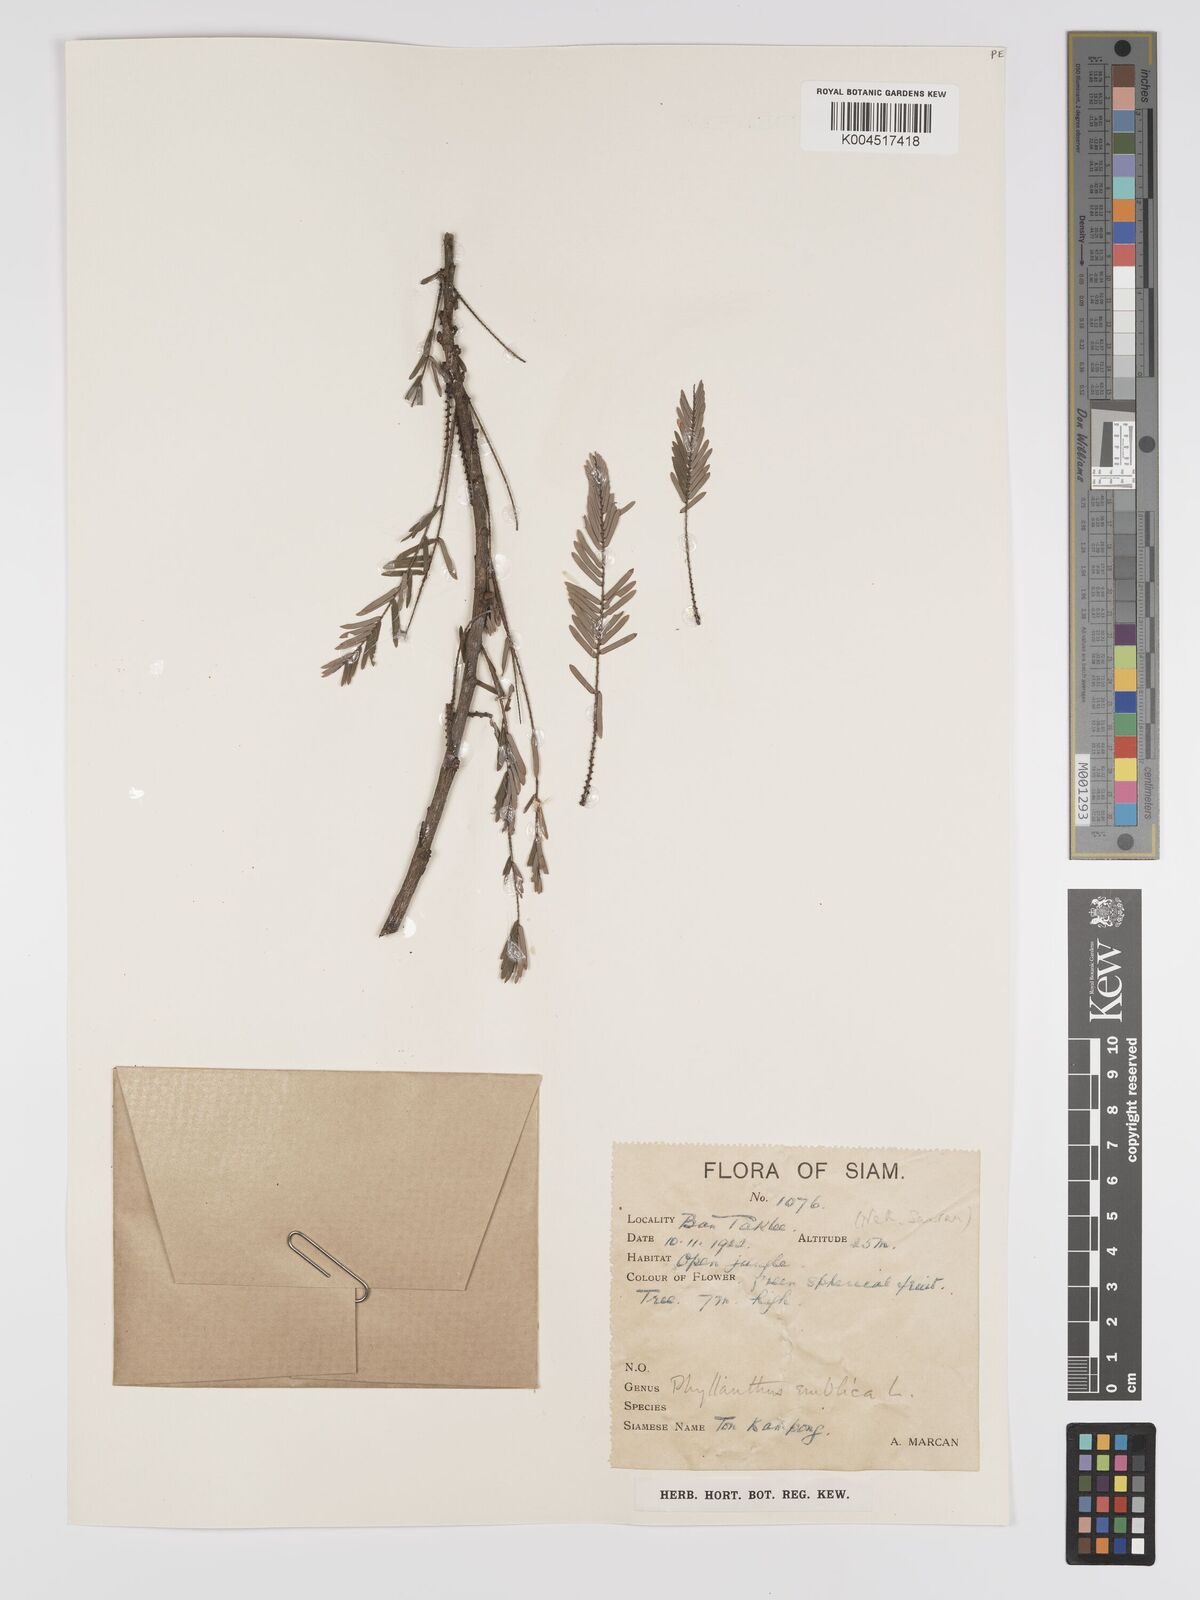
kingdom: Plantae
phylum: Tracheophyta
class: Magnoliopsida
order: Malpighiales
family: Phyllanthaceae
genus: Phyllanthus
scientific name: Phyllanthus emblica
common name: Indian gooseberry
